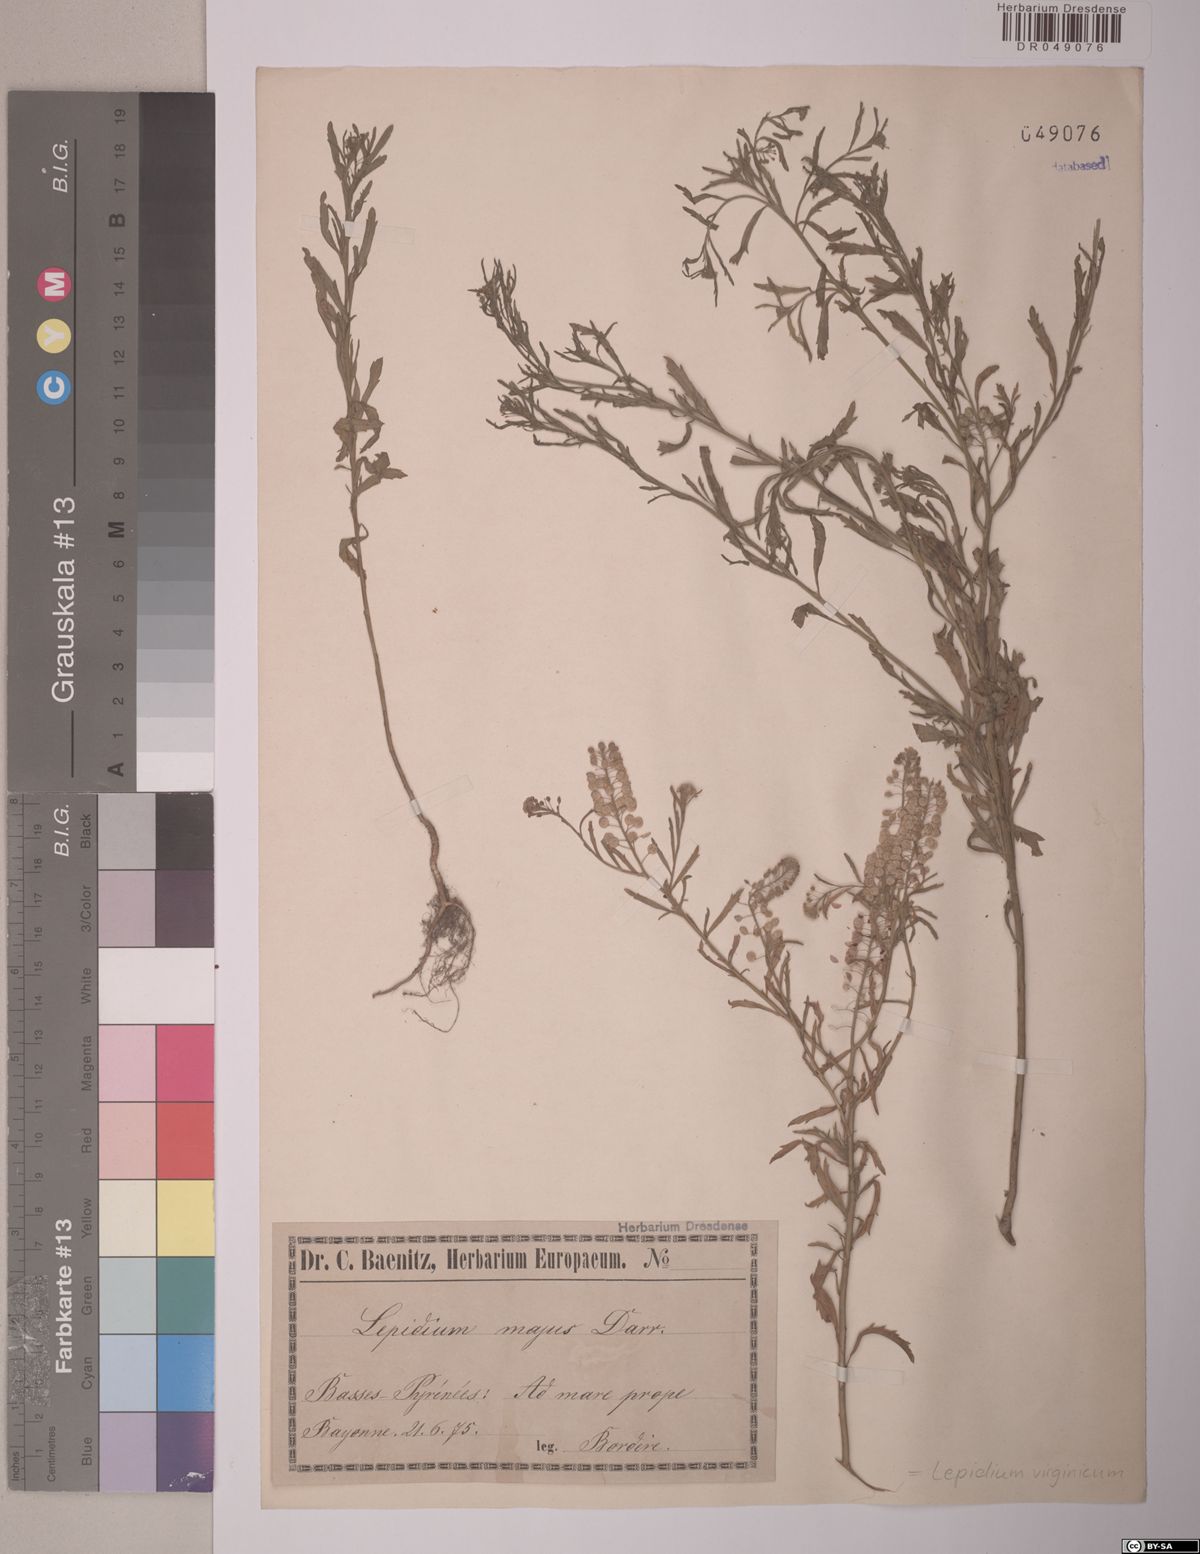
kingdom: Plantae
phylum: Tracheophyta
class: Magnoliopsida
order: Brassicales
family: Brassicaceae
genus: Lepidium
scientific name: Lepidium virginicum
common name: Least pepperwort
